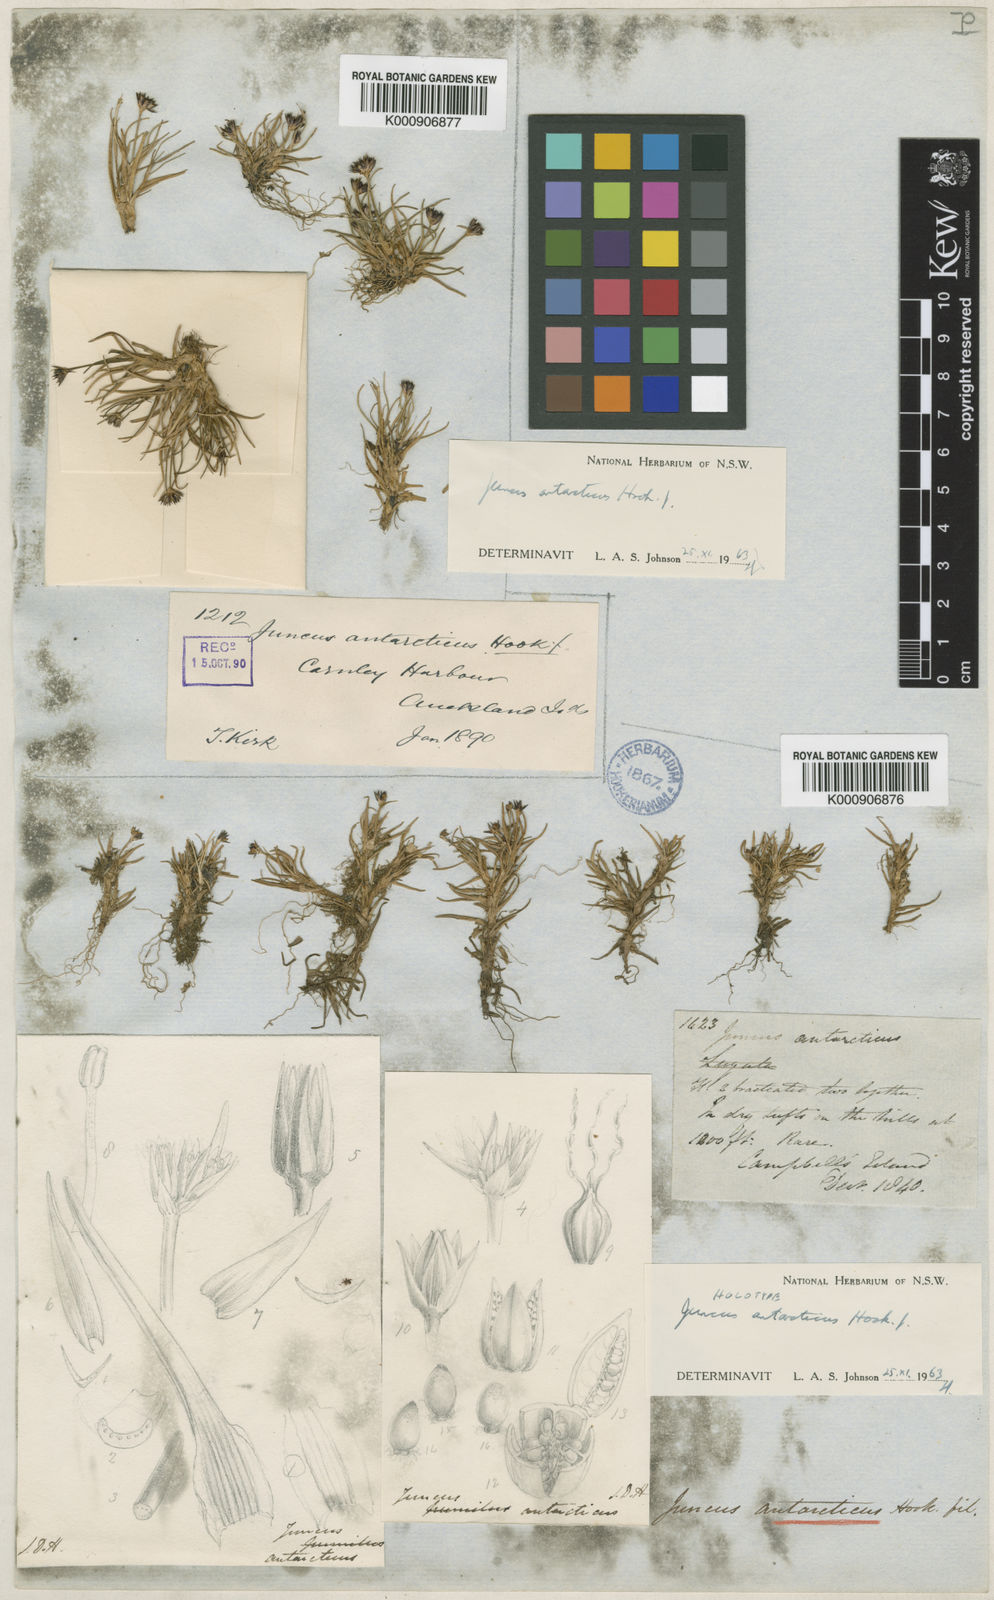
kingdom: Plantae
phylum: Tracheophyta
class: Liliopsida
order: Poales
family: Juncaceae
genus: Juncus
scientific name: Juncus antarcticus
